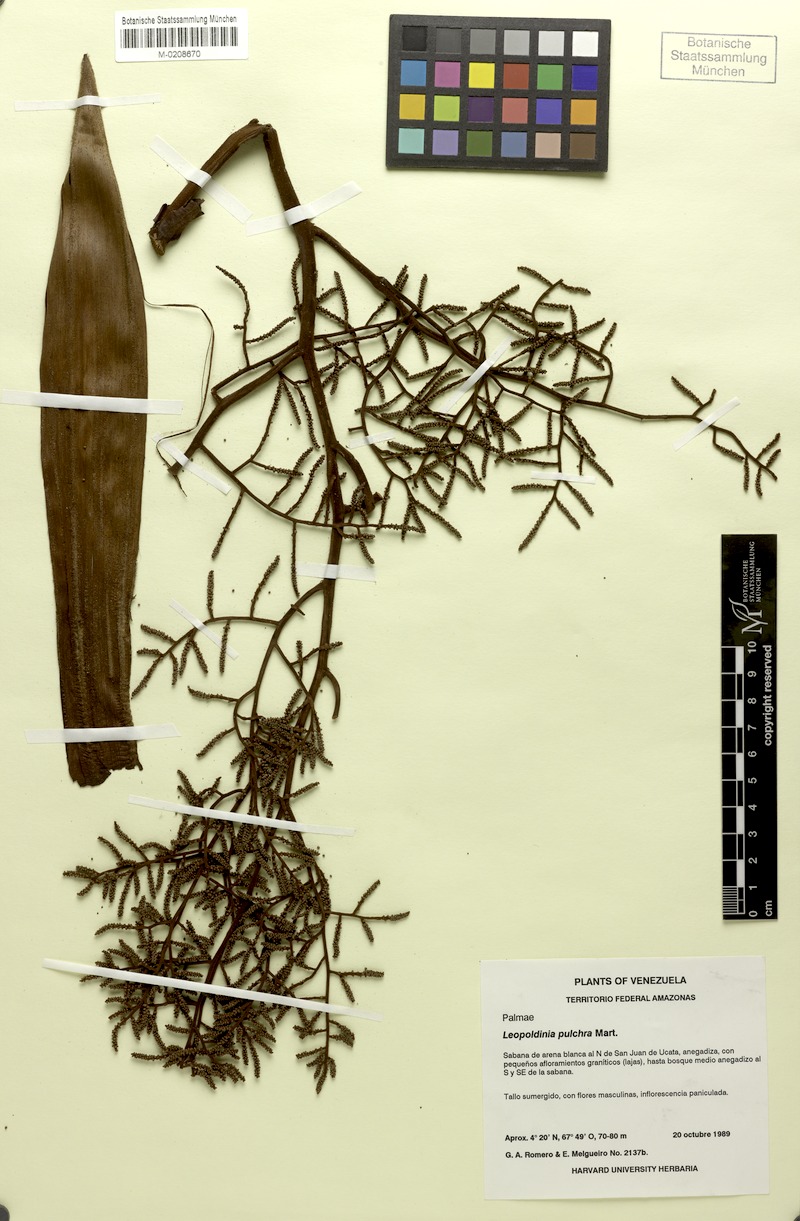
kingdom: Plantae
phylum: Tracheophyta
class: Liliopsida
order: Arecales
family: Arecaceae
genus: Leopoldinia
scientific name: Leopoldinia pulchra
